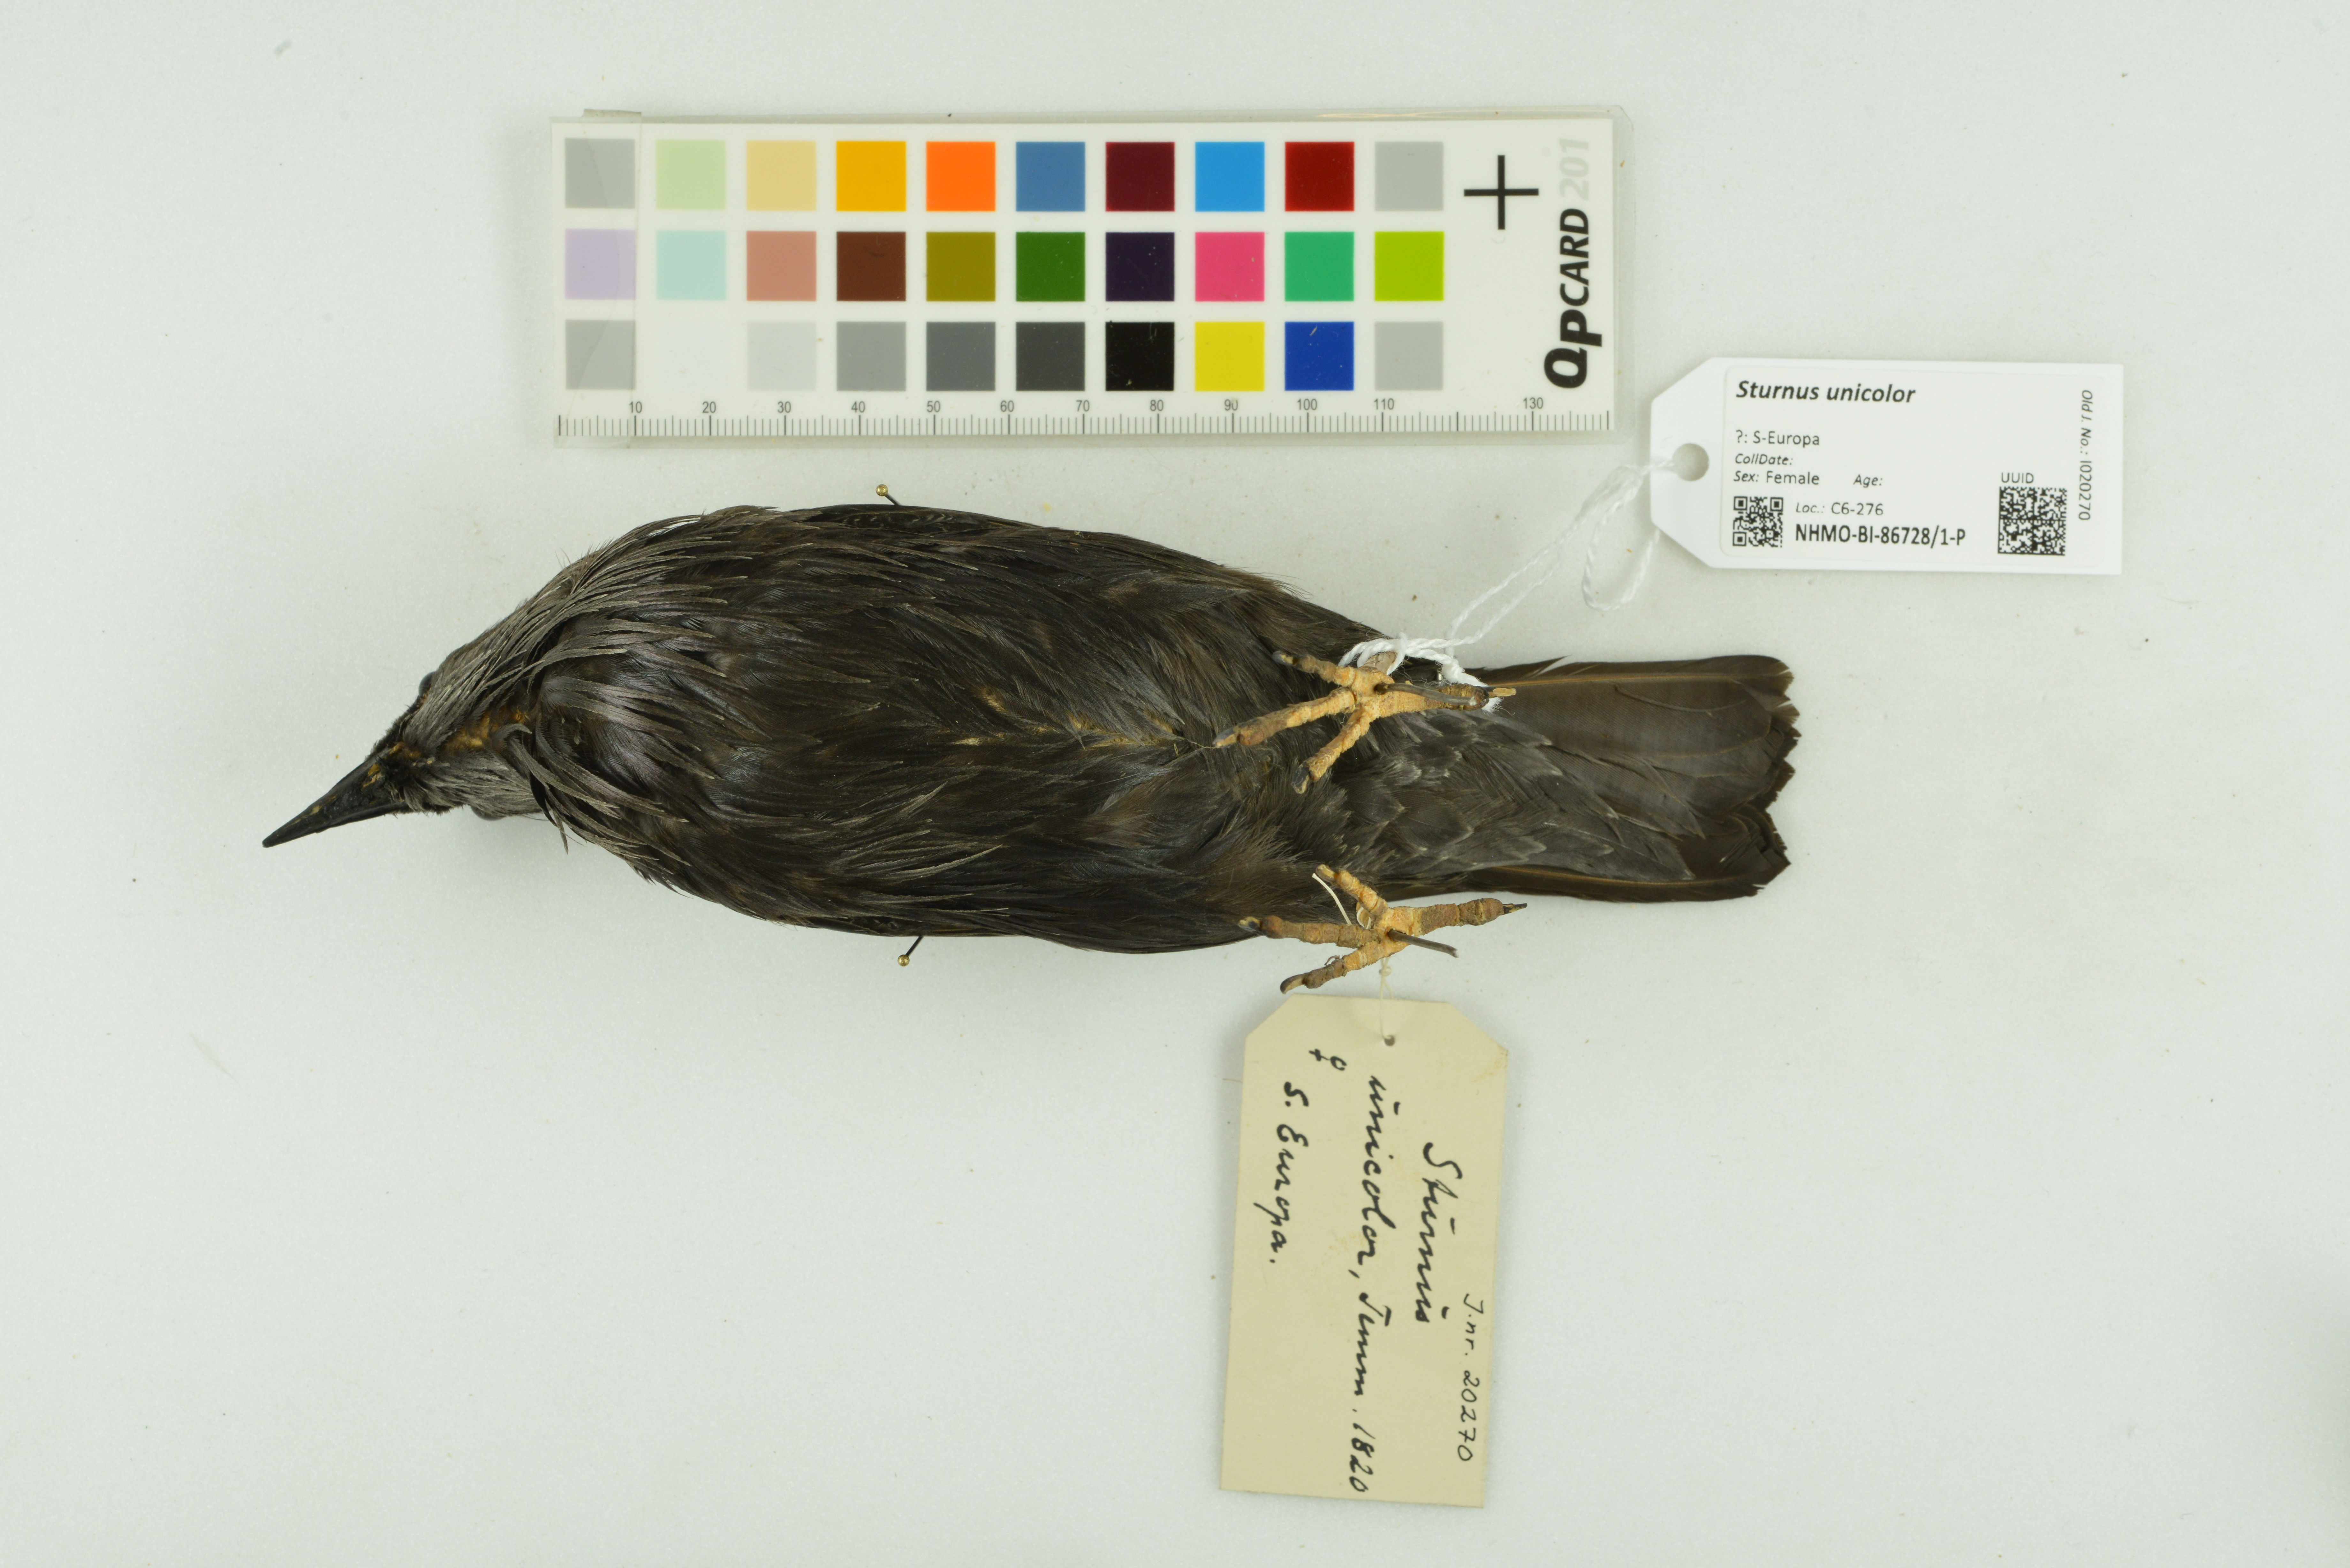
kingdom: Animalia
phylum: Chordata
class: Aves
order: Passeriformes
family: Sturnidae
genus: Sturnus
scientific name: Sturnus unicolor
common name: Spotless starling
